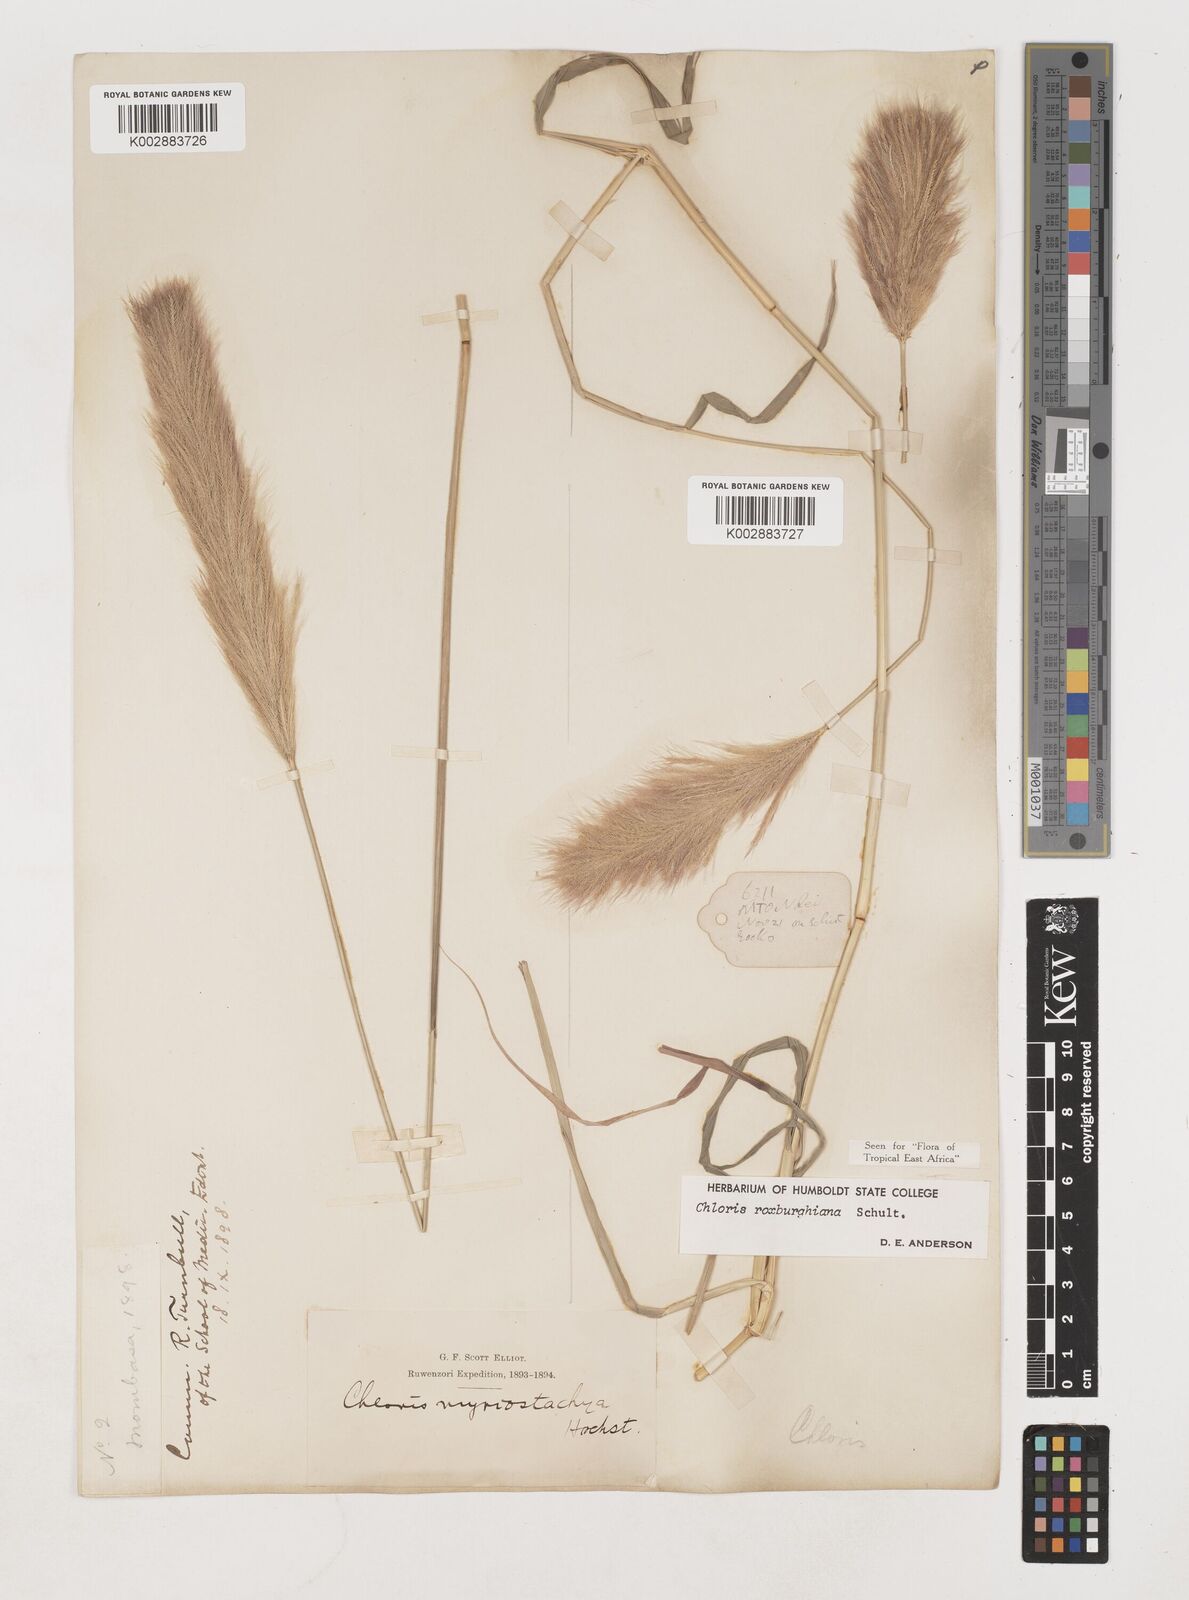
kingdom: Plantae
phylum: Tracheophyta
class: Liliopsida
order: Poales
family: Poaceae
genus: Tetrapogon
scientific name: Tetrapogon roxburghiana
